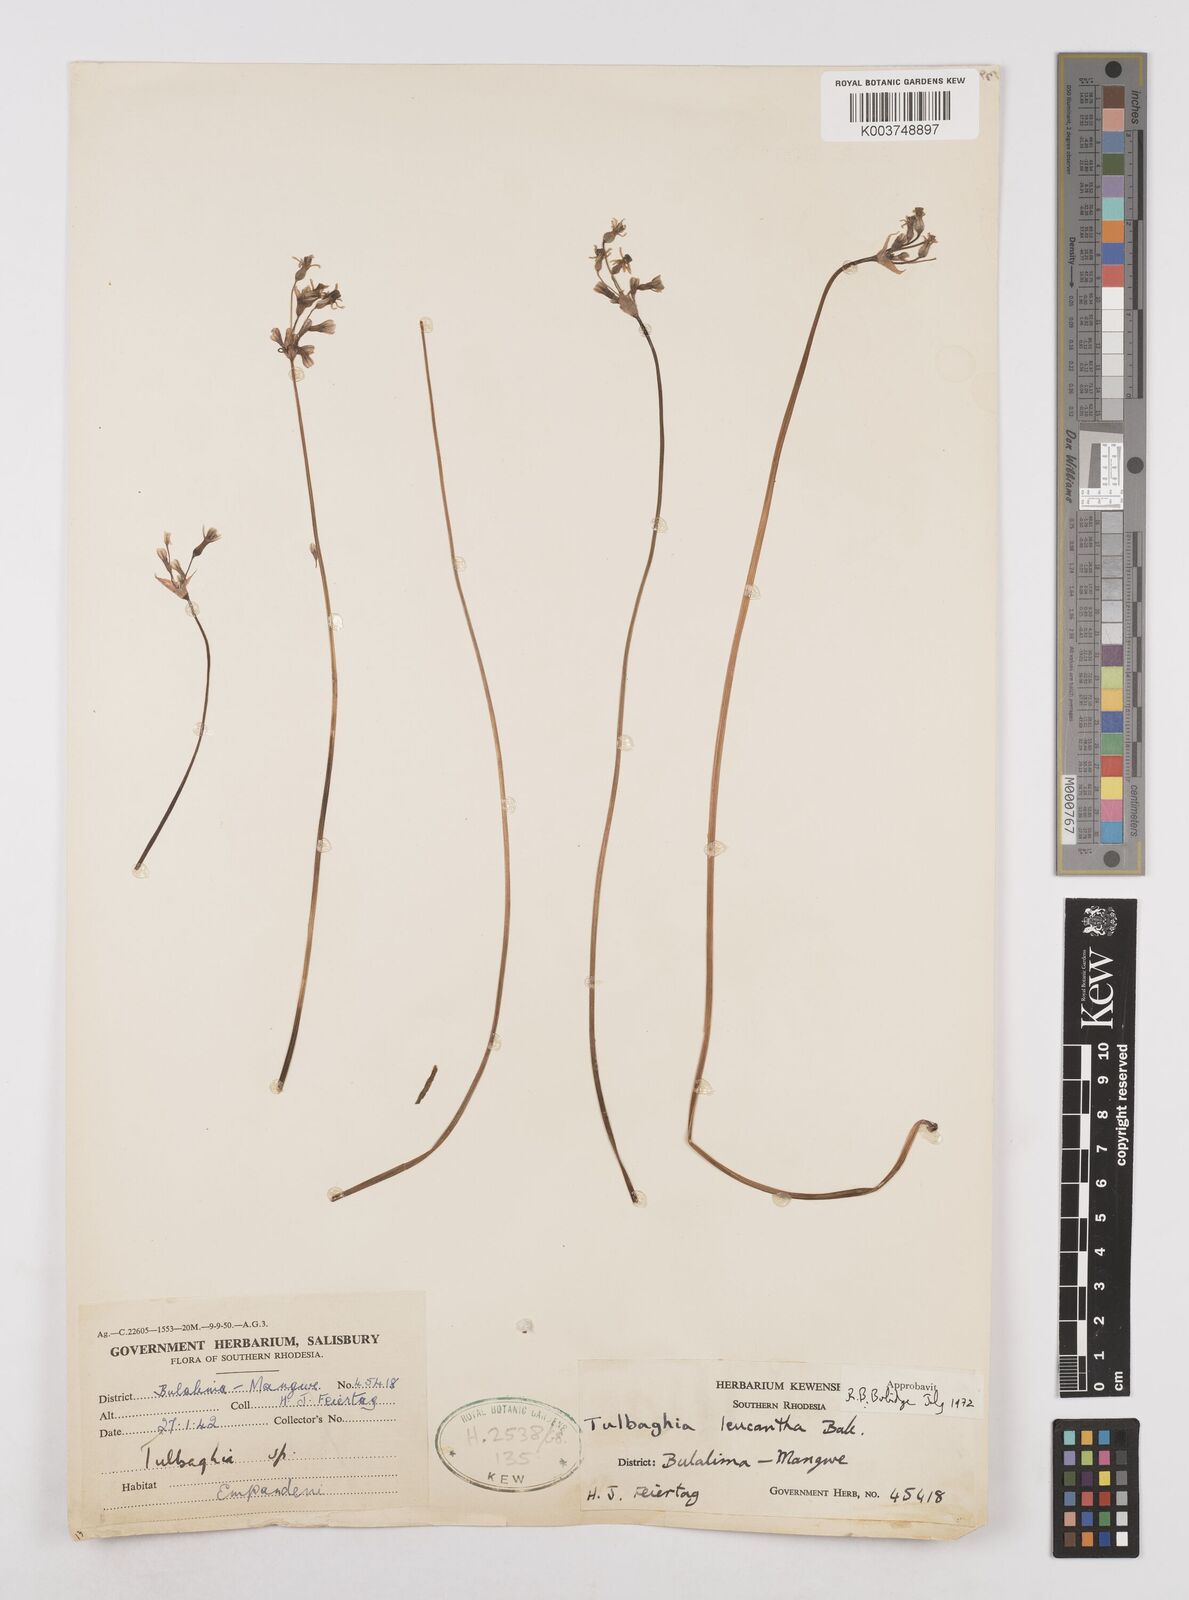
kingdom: Plantae
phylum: Tracheophyta
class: Liliopsida
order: Asparagales
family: Amaryllidaceae
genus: Tulbaghia
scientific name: Tulbaghia
